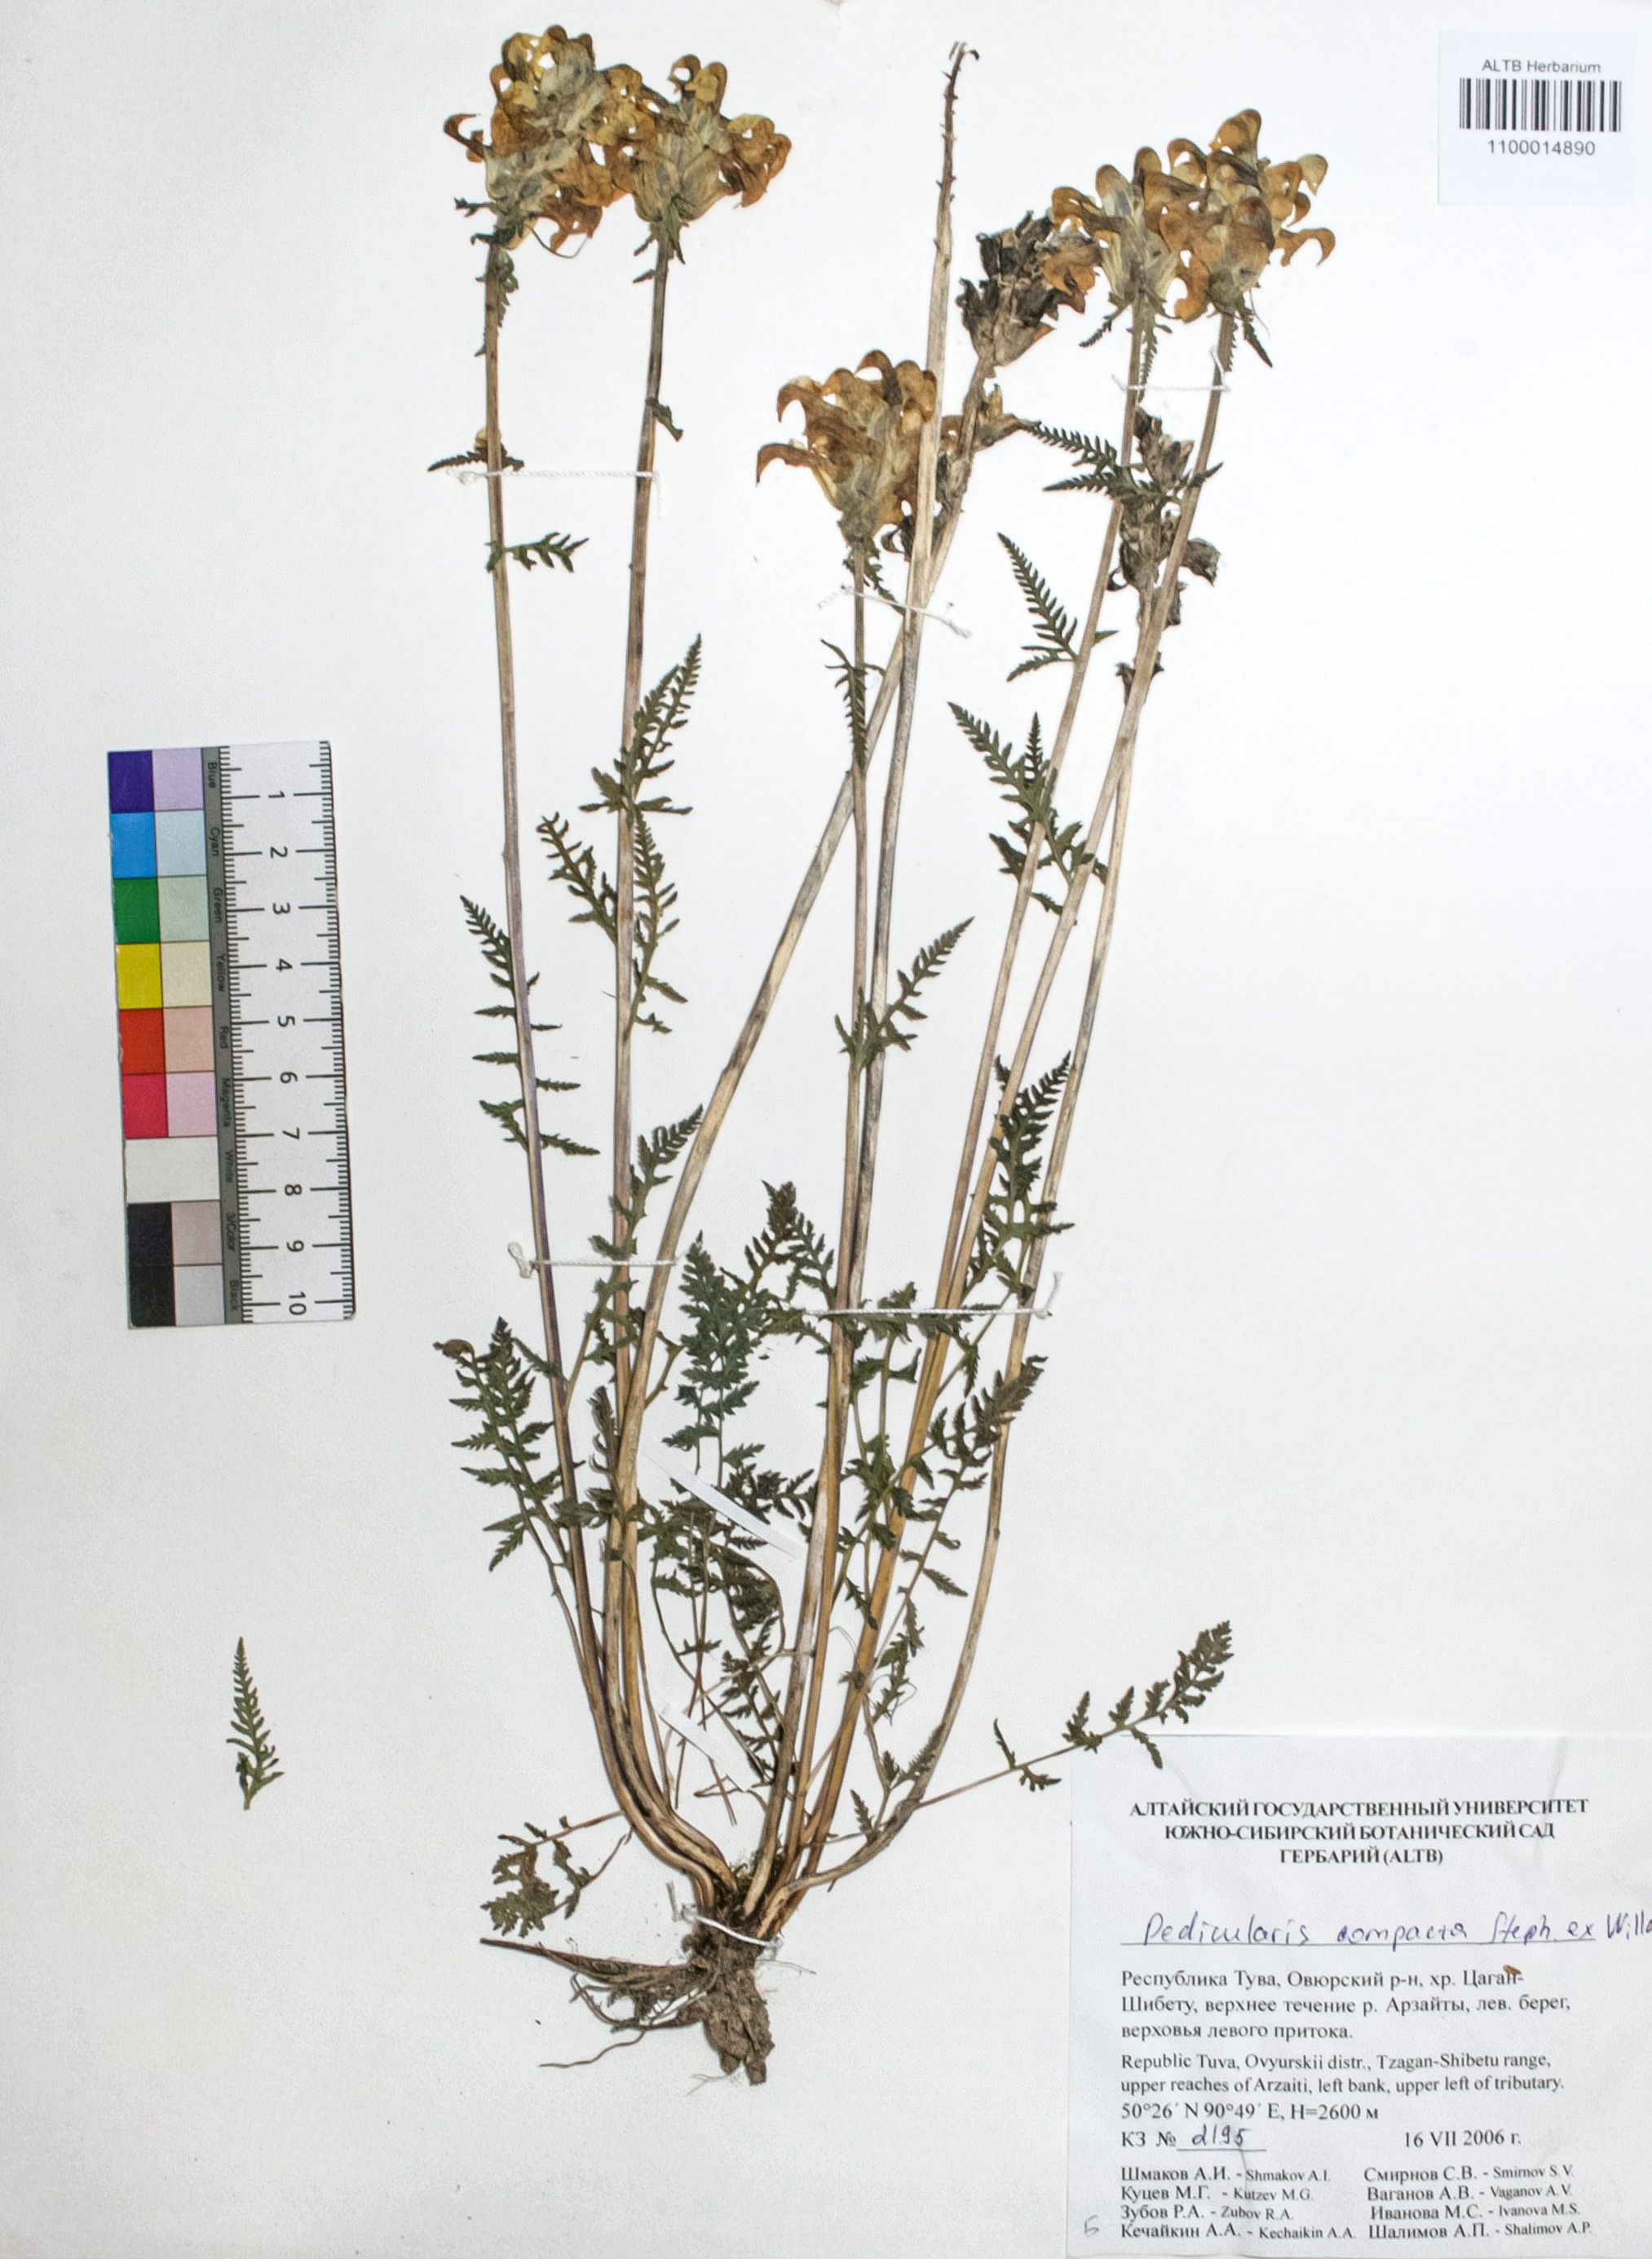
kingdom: Plantae
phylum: Tracheophyta
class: Magnoliopsida
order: Lamiales
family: Orobanchaceae
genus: Pedicularis
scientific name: Pedicularis compacta
